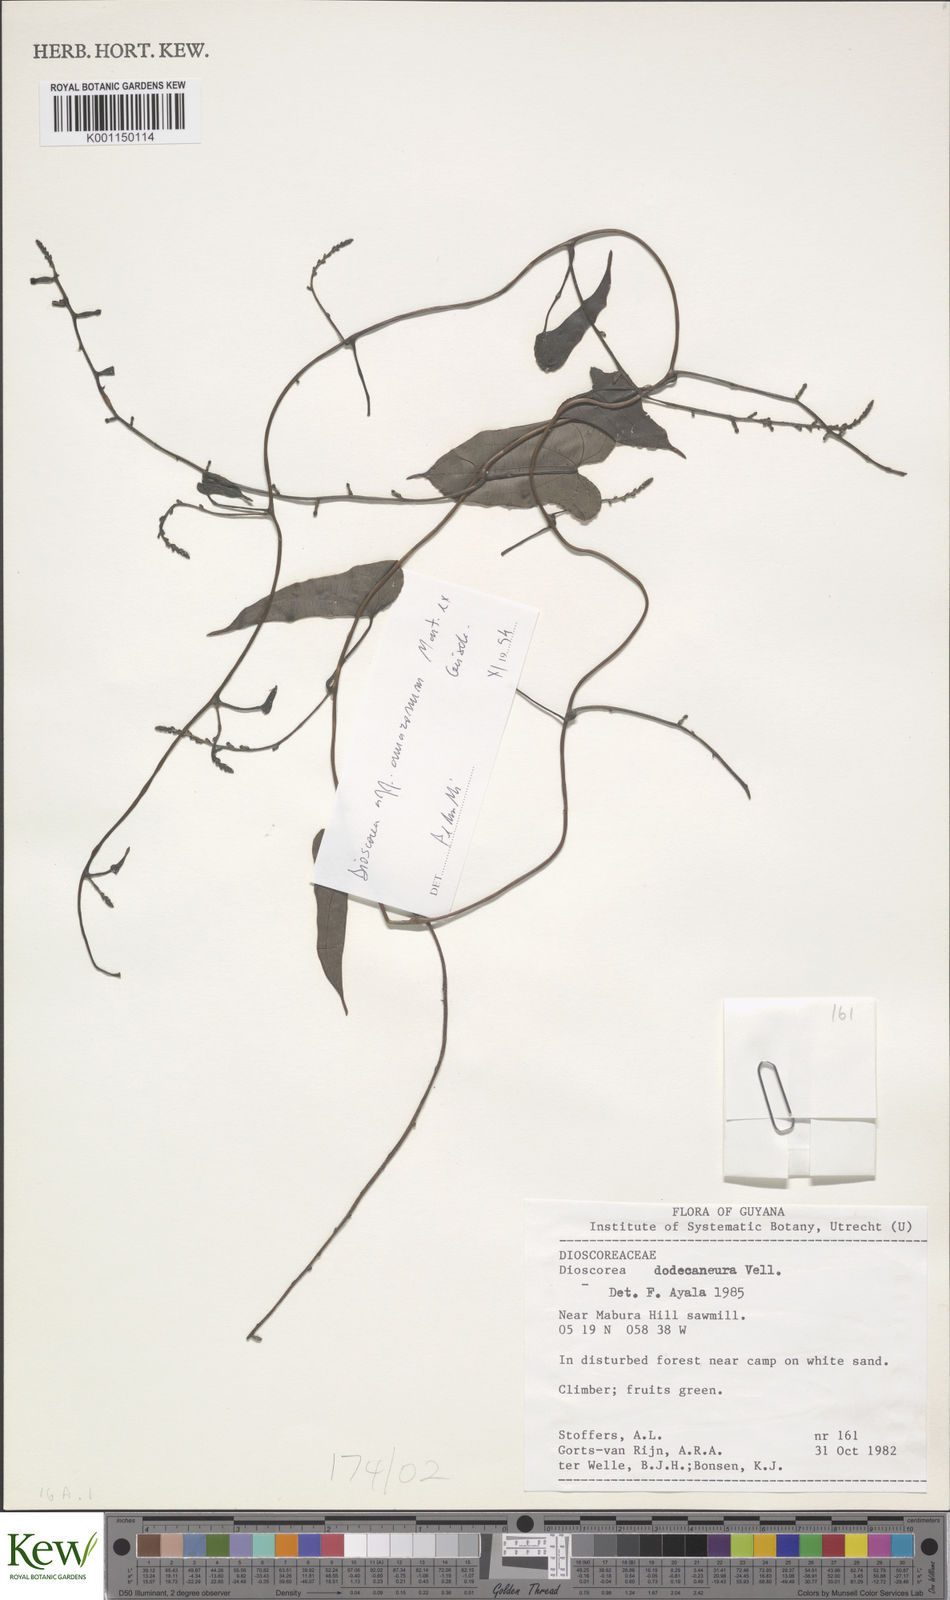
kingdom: Plantae
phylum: Tracheophyta
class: Liliopsida
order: Dioscoreales
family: Dioscoreaceae
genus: Dioscorea
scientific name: Dioscorea trichanthera
